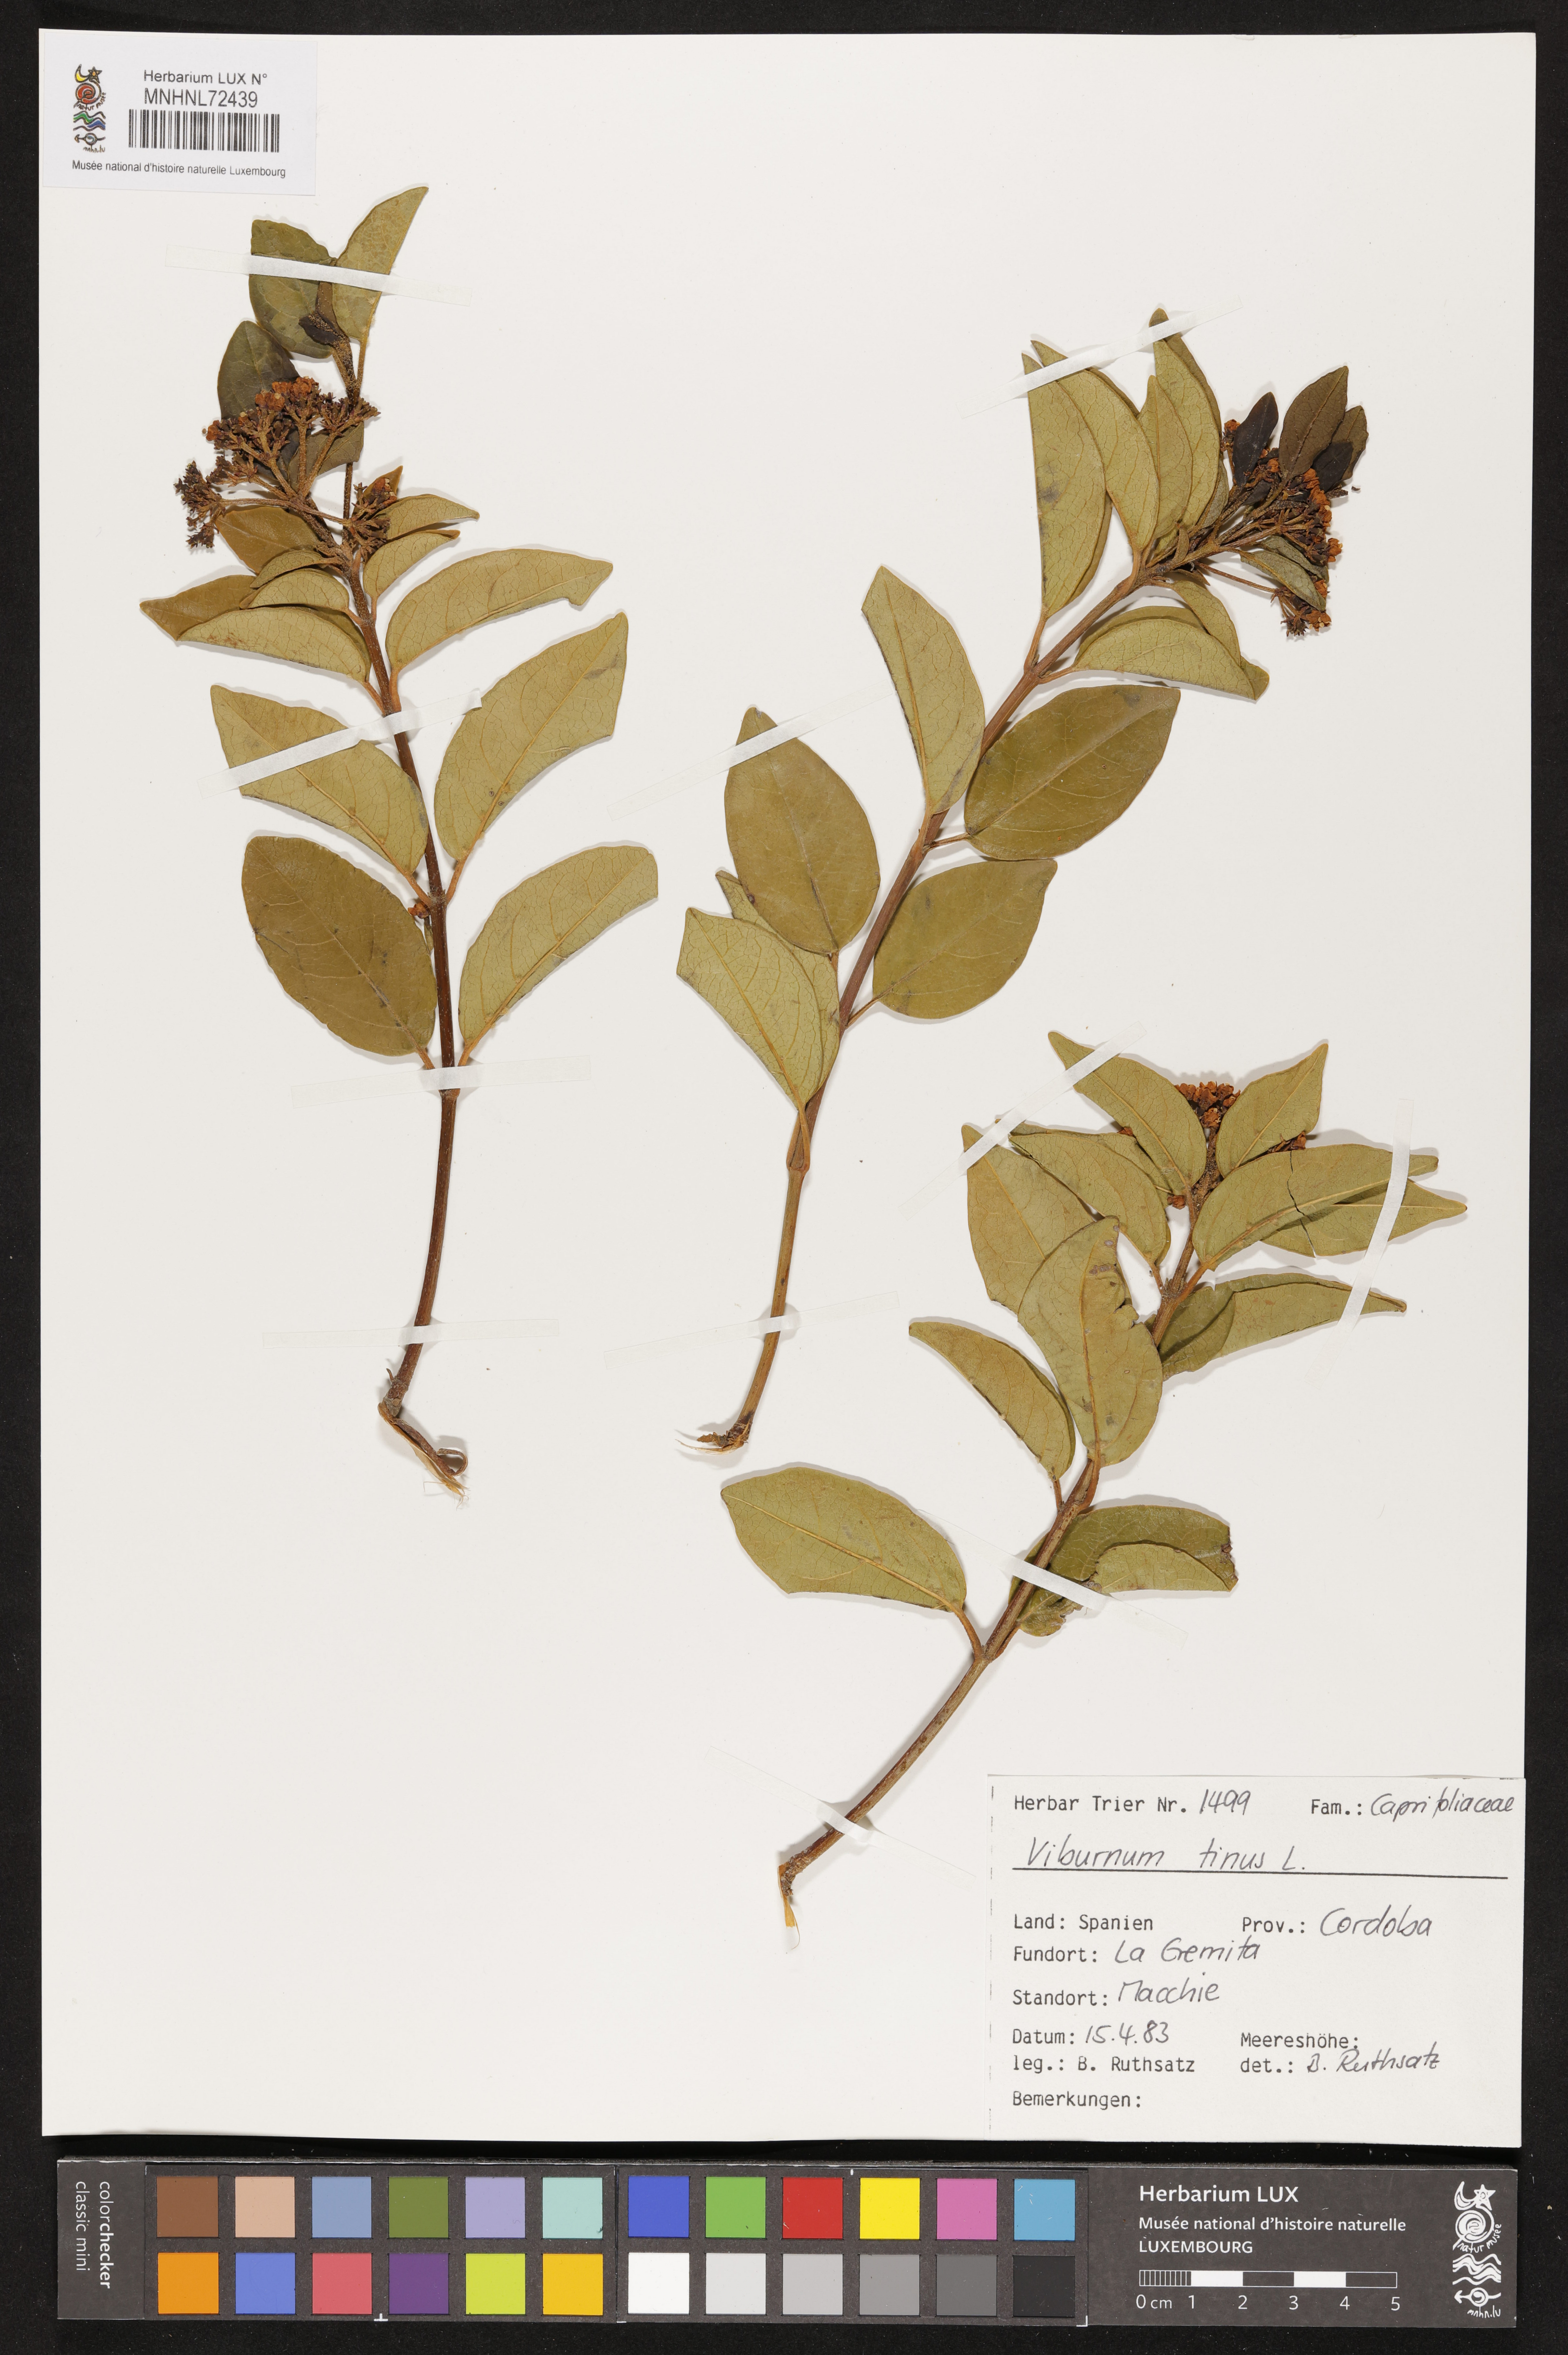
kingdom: Plantae
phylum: Tracheophyta
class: Magnoliopsida
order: Dipsacales
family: Viburnaceae
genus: Viburnum
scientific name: Viburnum tinus
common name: Laurustinus
